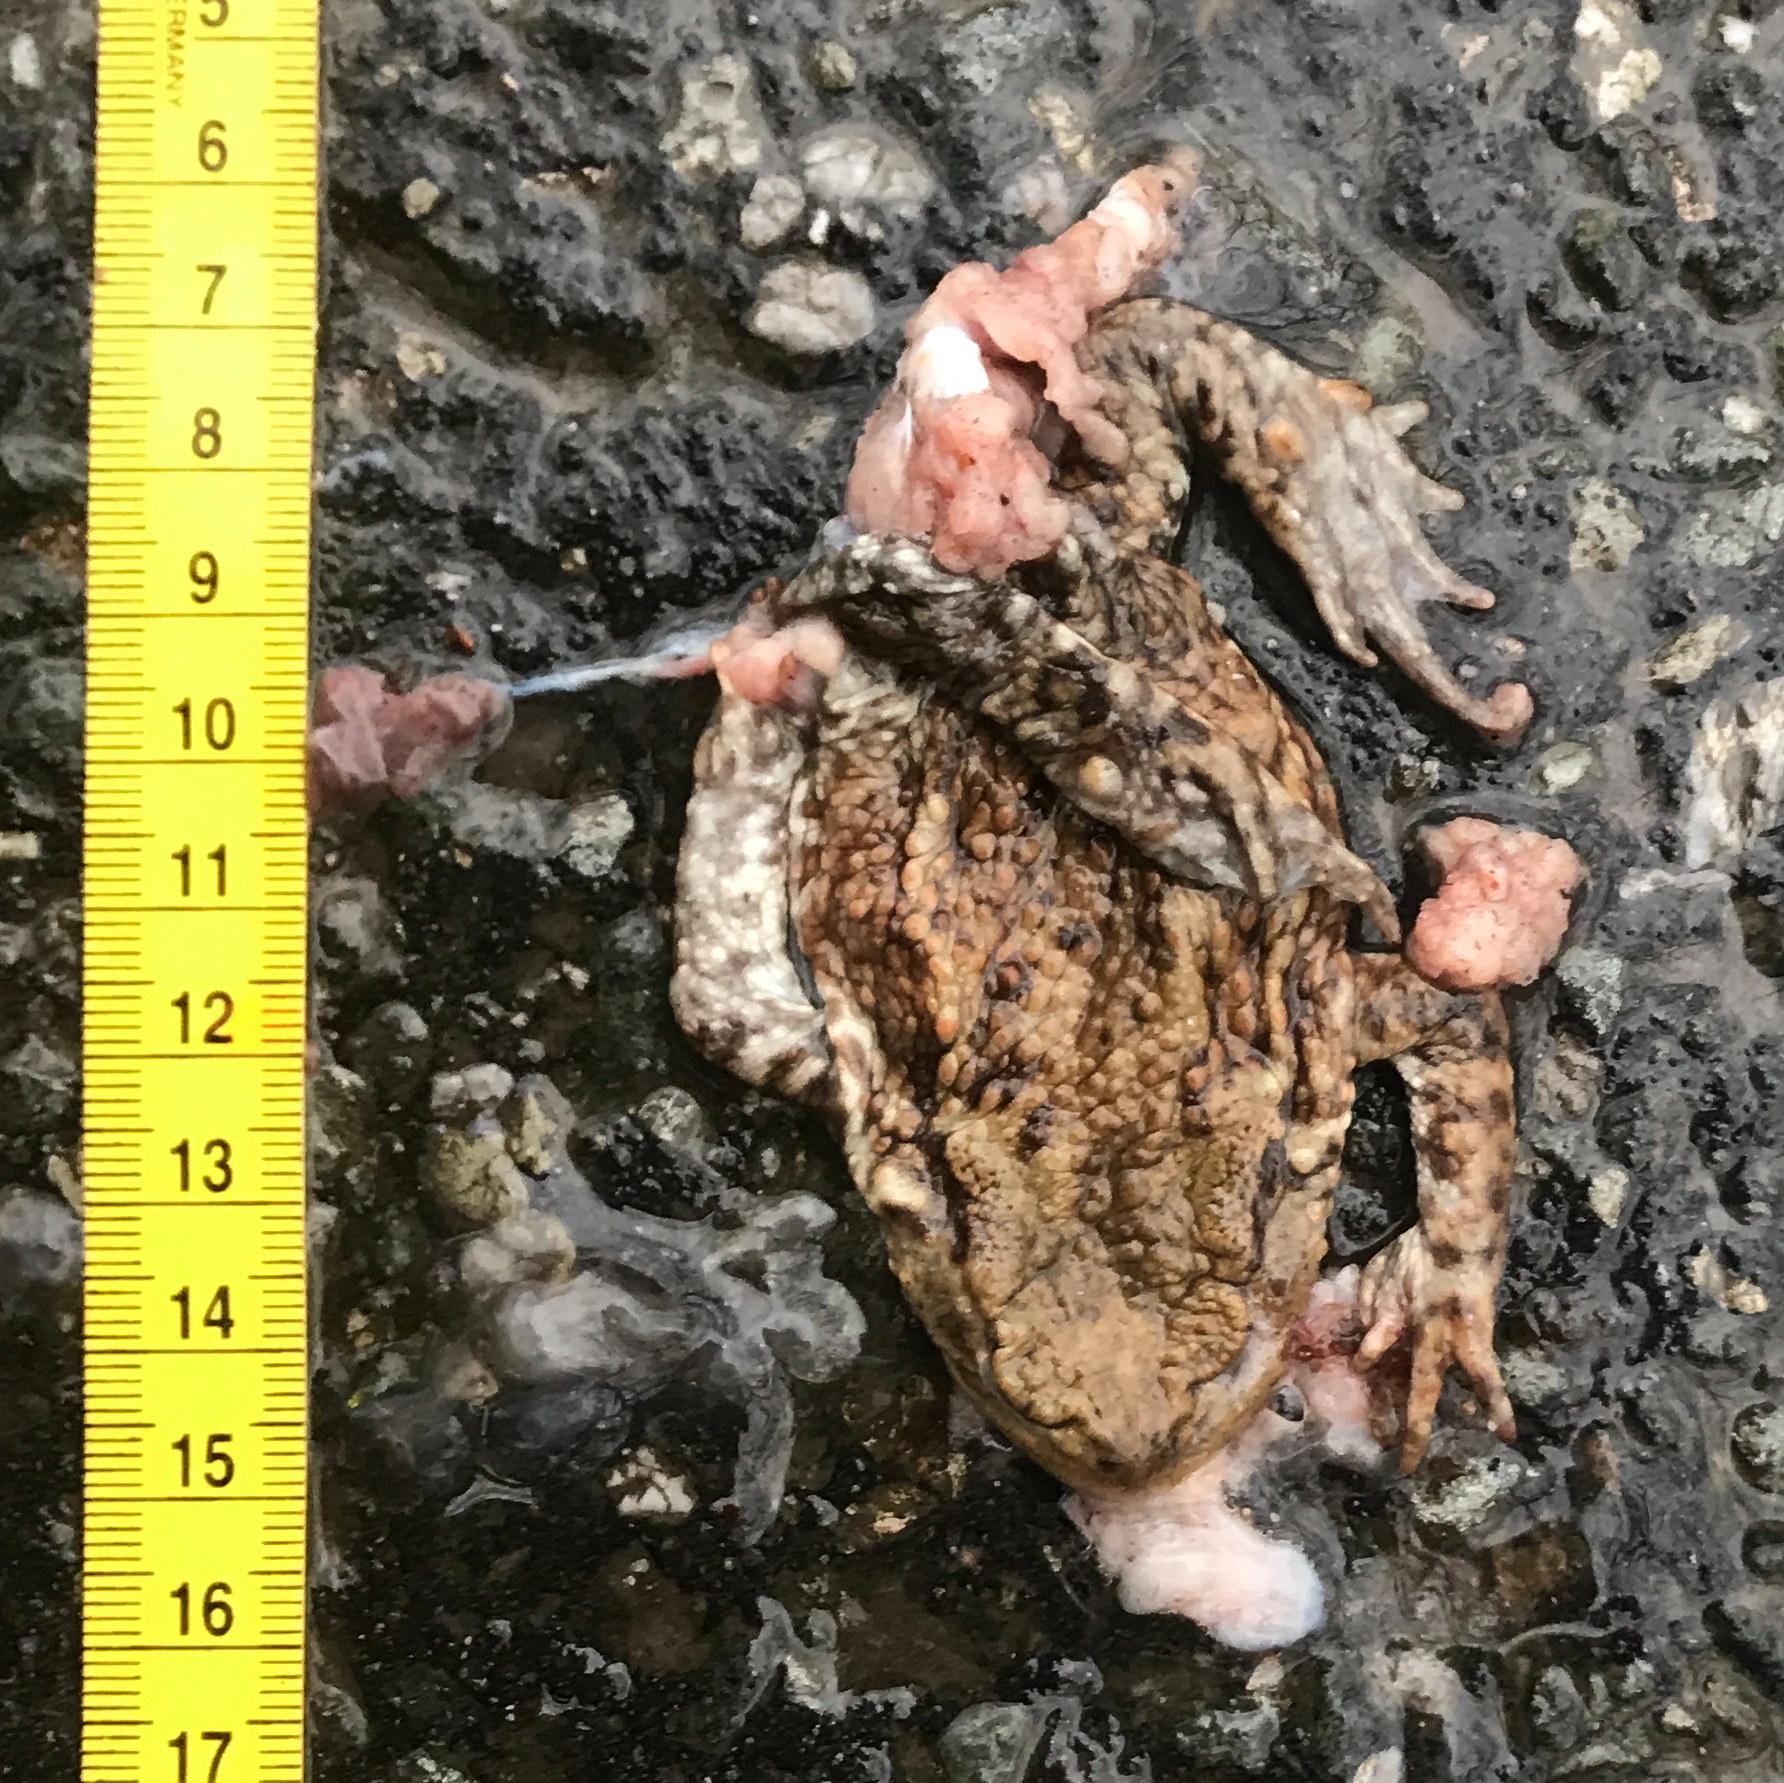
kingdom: Animalia
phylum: Chordata
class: Amphibia
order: Anura
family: Bufonidae
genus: Bufo
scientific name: Bufo bufo
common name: Common toad
